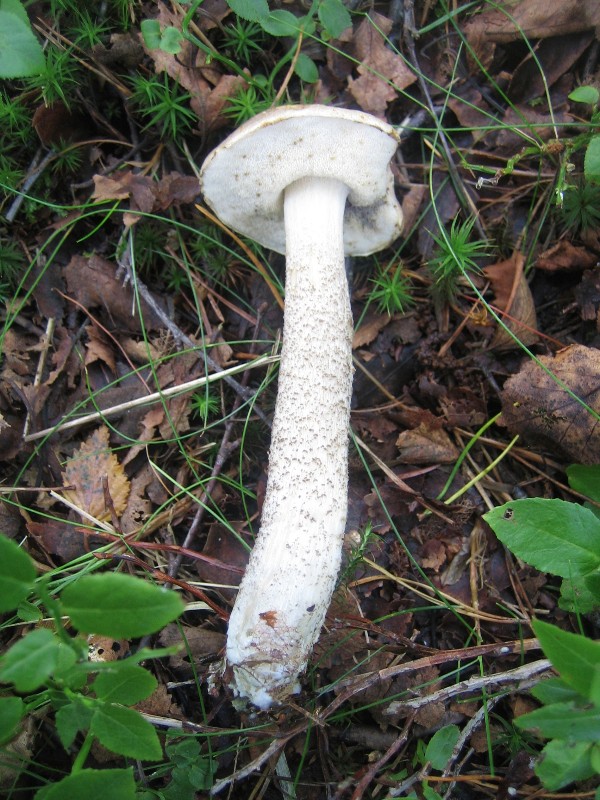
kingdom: Fungi
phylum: Basidiomycota
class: Agaricomycetes
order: Boletales
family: Boletaceae
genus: Leccinum
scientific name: Leccinum cyaneobasileucum
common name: almindelig skælrørhat
